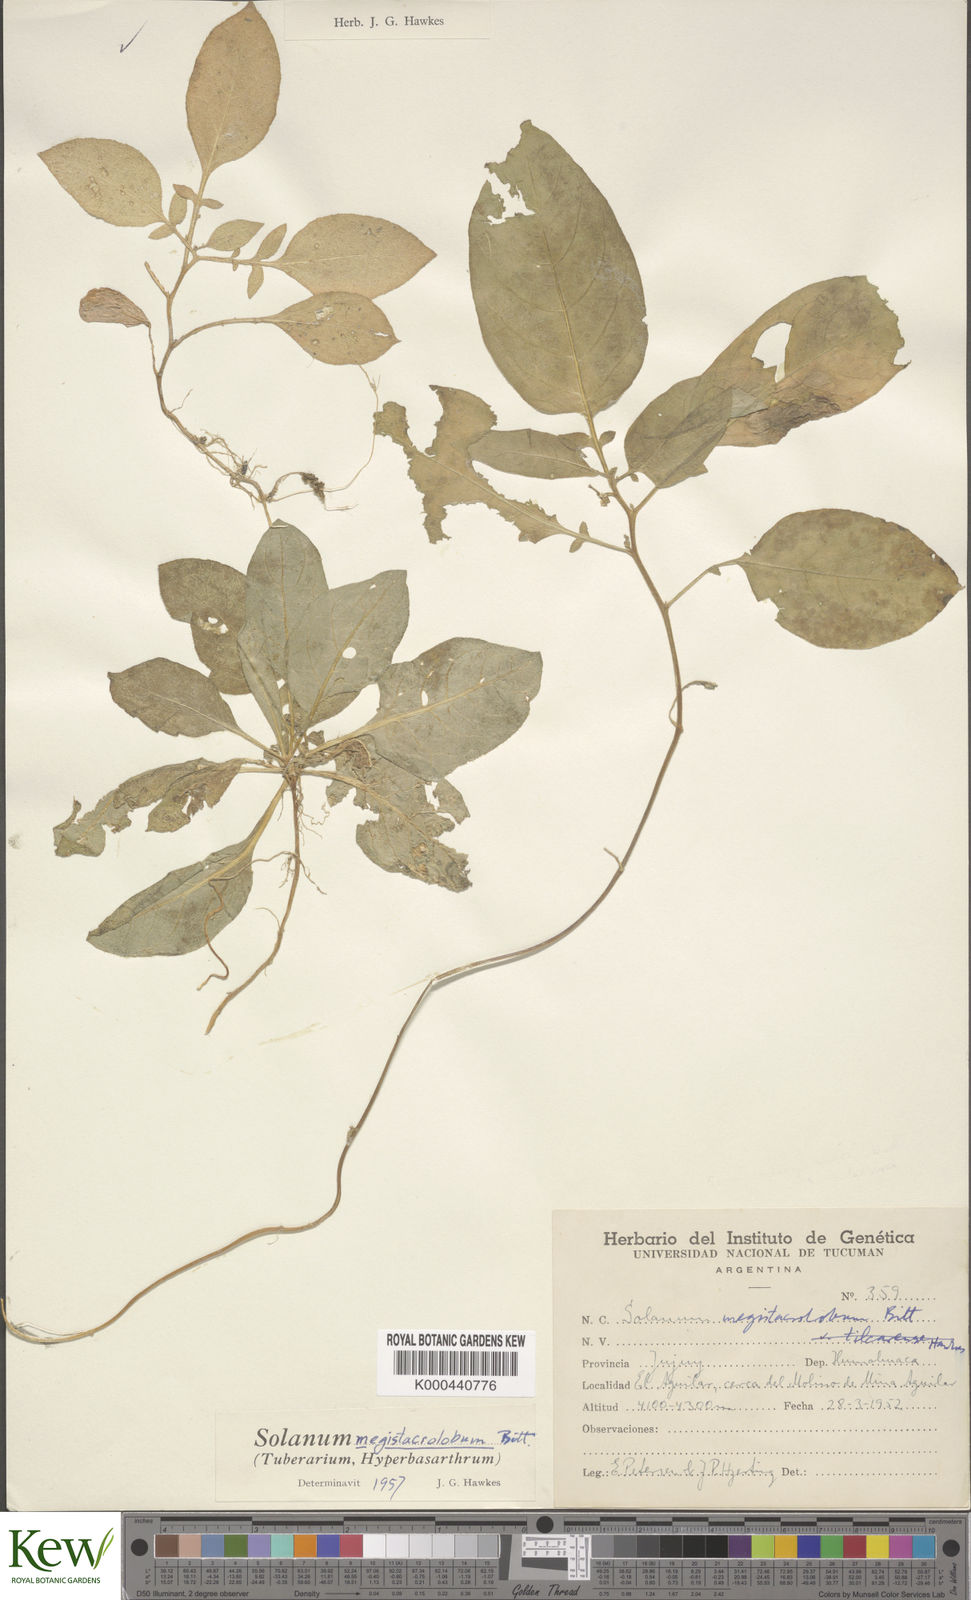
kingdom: Plantae
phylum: Tracheophyta
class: Magnoliopsida
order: Solanales
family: Solanaceae
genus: Solanum
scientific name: Solanum boliviense
